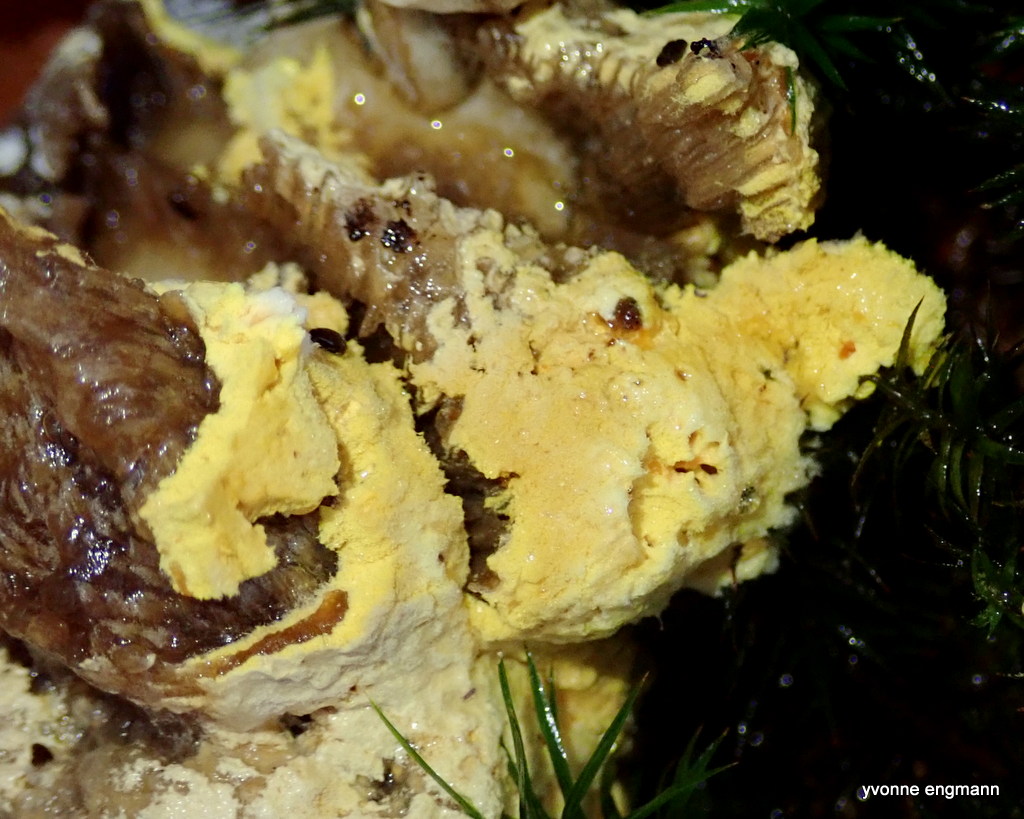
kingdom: Fungi
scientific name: Fungi
